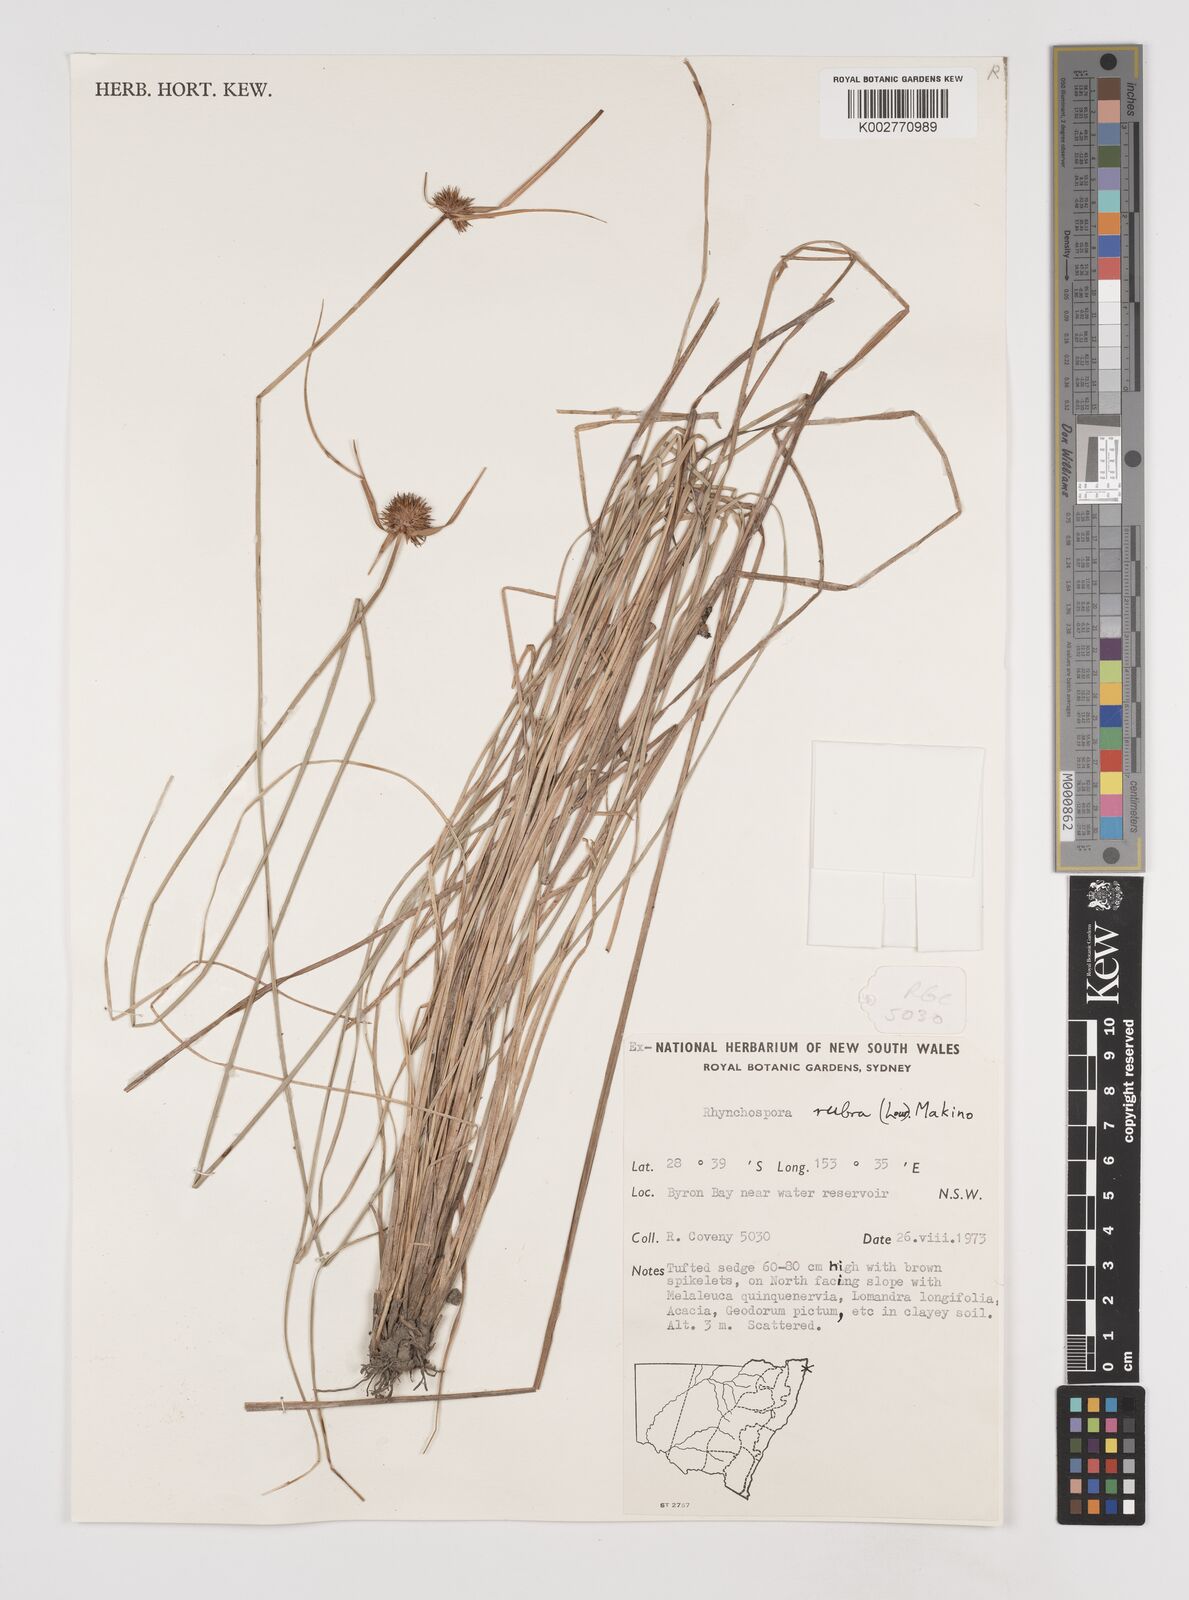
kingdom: Plantae
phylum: Tracheophyta
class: Liliopsida
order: Poales
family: Cyperaceae
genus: Rhynchospora
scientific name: Rhynchospora rubra
